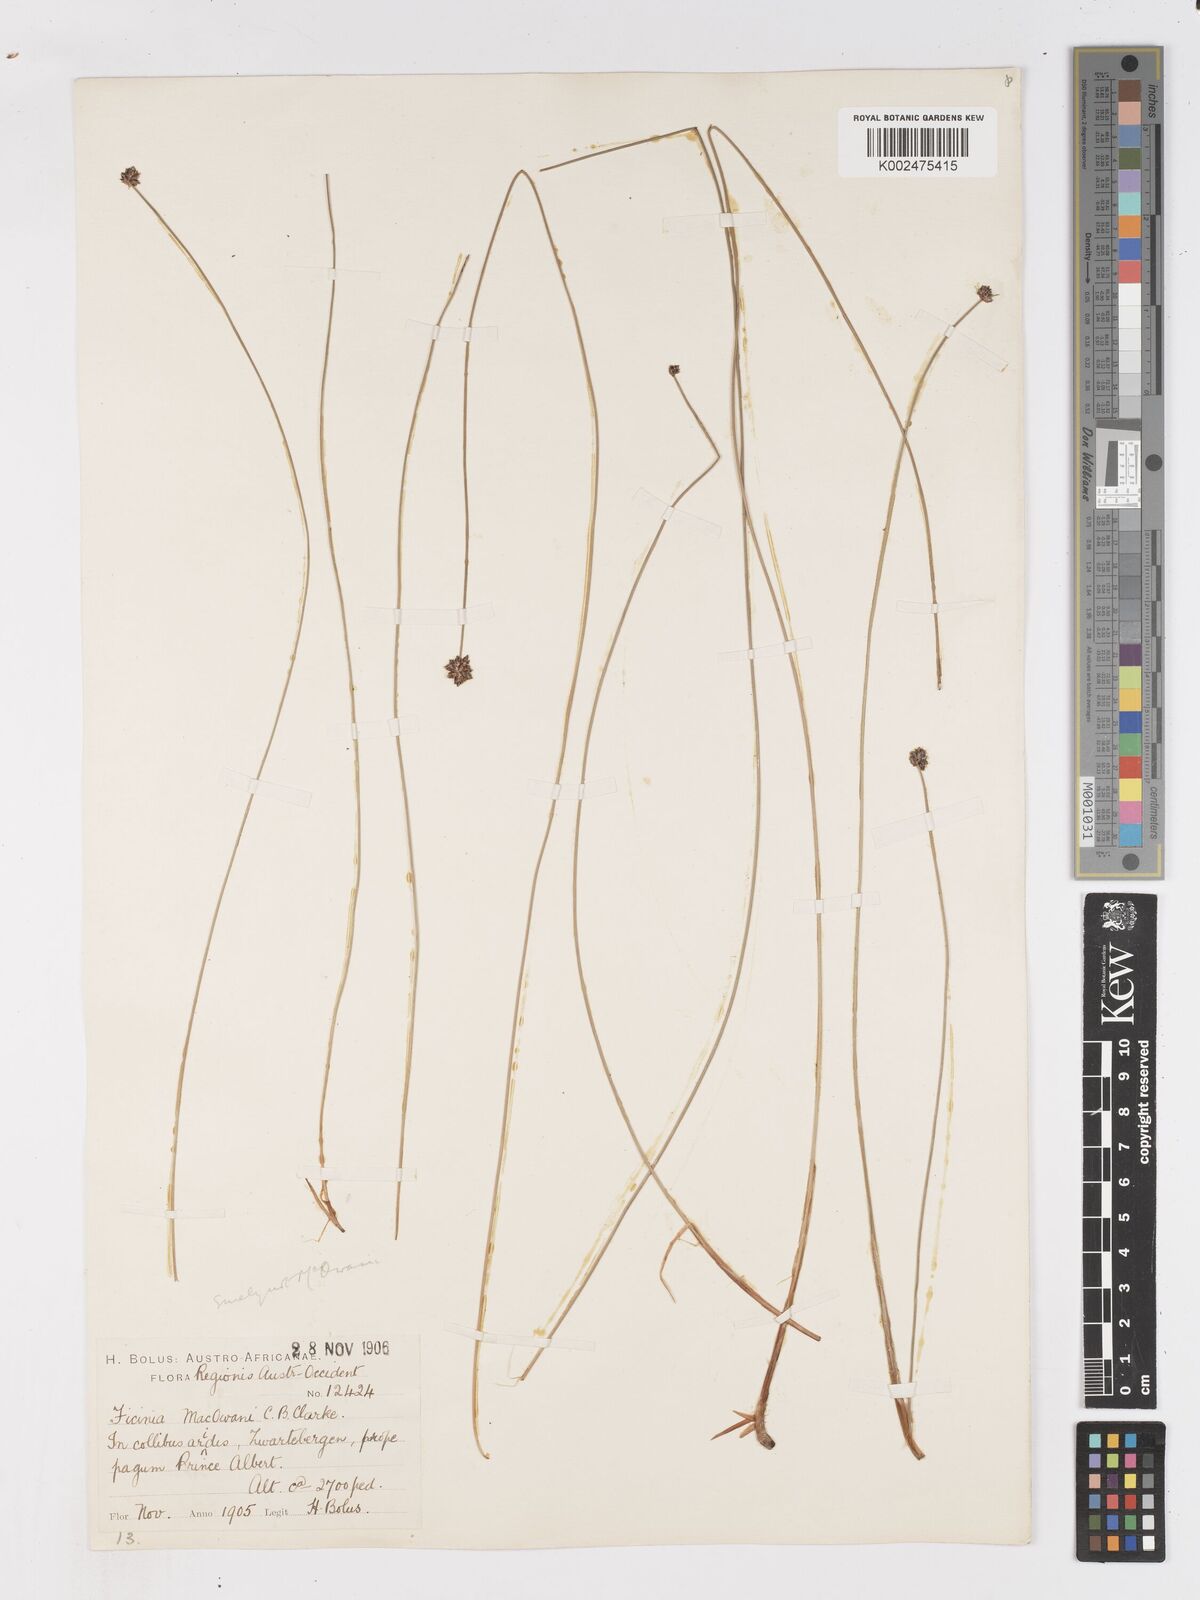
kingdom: Plantae
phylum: Tracheophyta
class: Liliopsida
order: Poales
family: Cyperaceae
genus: Ficinia
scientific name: Ficinia acuminata
